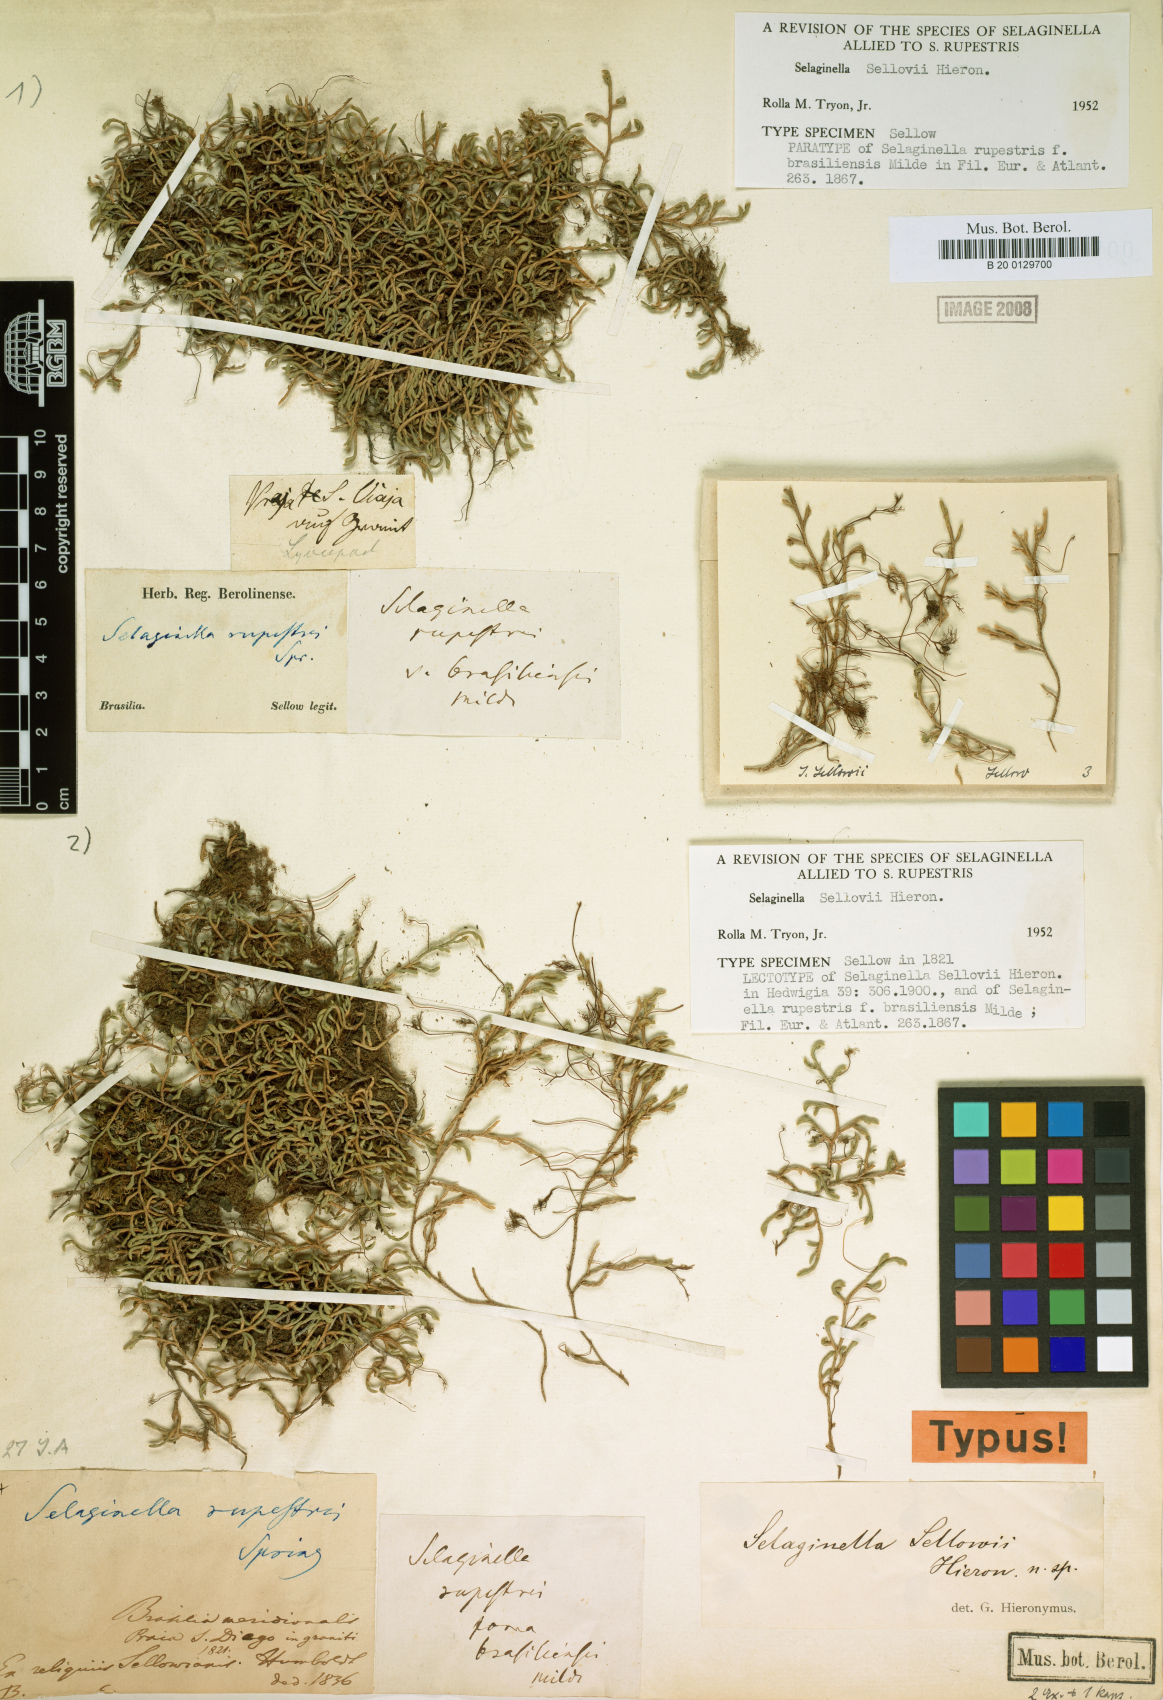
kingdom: Plantae
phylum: Tracheophyta
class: Lycopodiopsida
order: Selaginellales
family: Selaginellaceae
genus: Selaginella
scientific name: Selaginella sellowii
